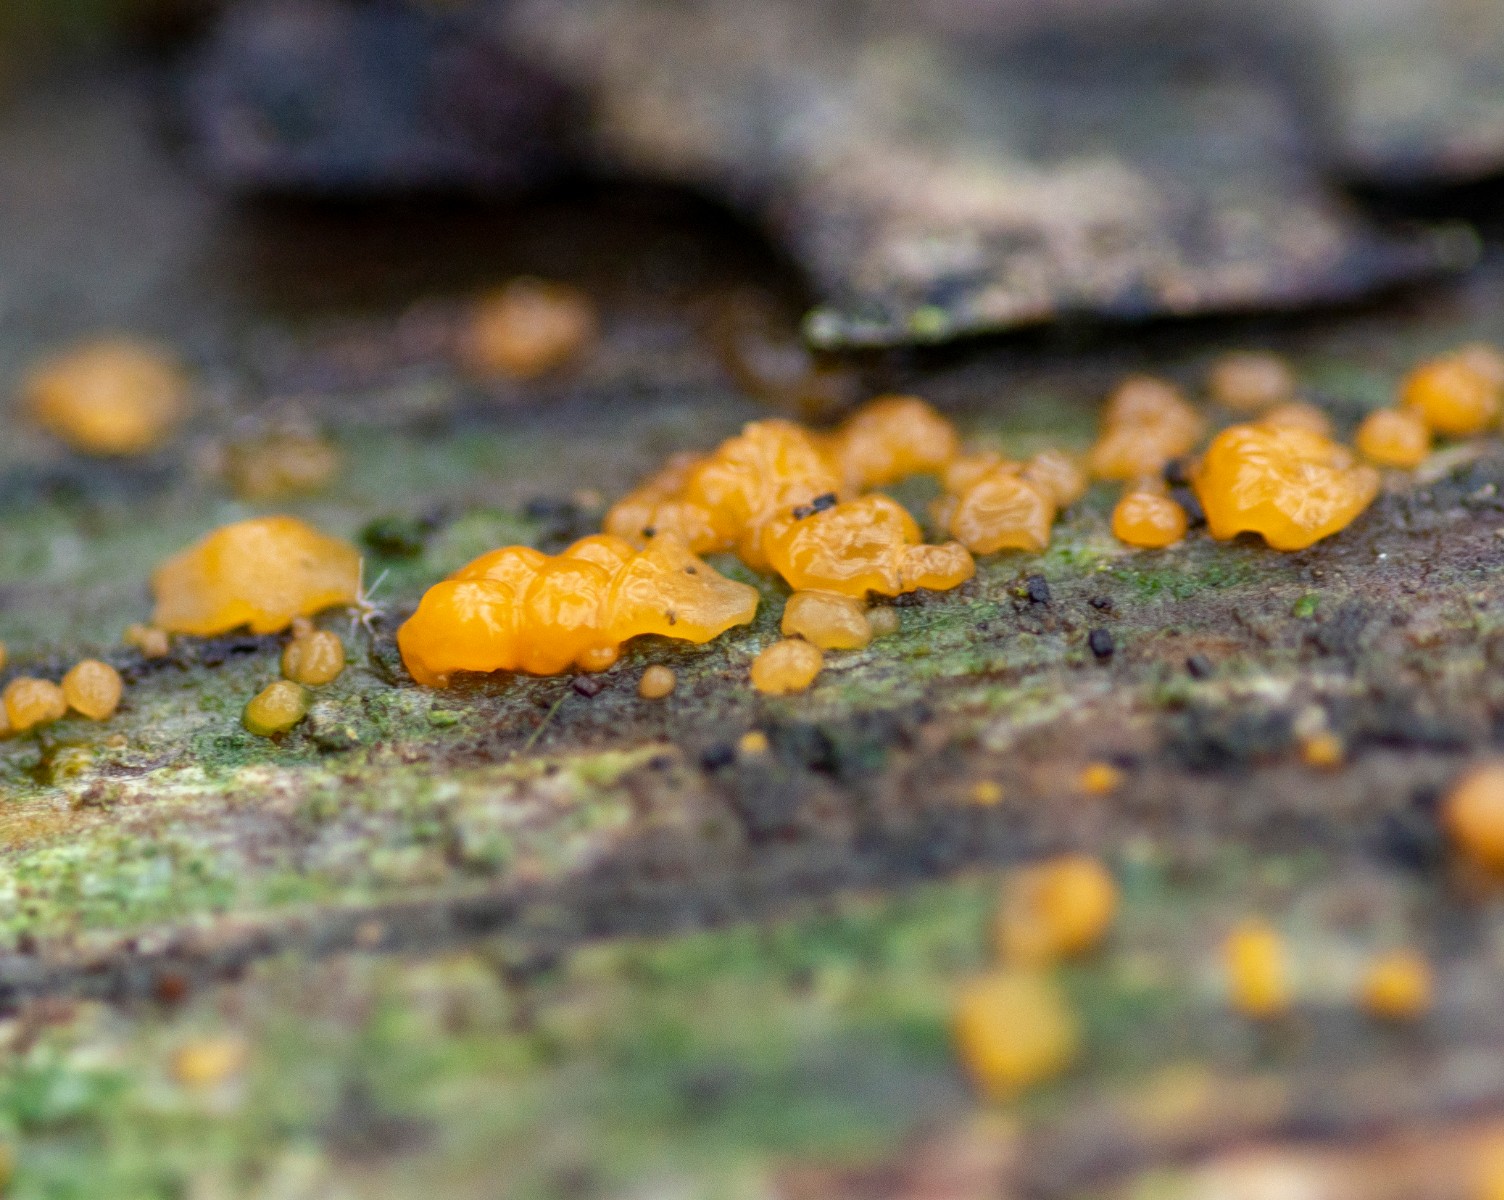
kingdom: Fungi
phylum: Basidiomycota
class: Dacrymycetes
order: Dacrymycetales
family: Dacrymycetaceae
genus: Dacrymyces
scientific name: Dacrymyces stillatus
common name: almindelig tåresvamp
